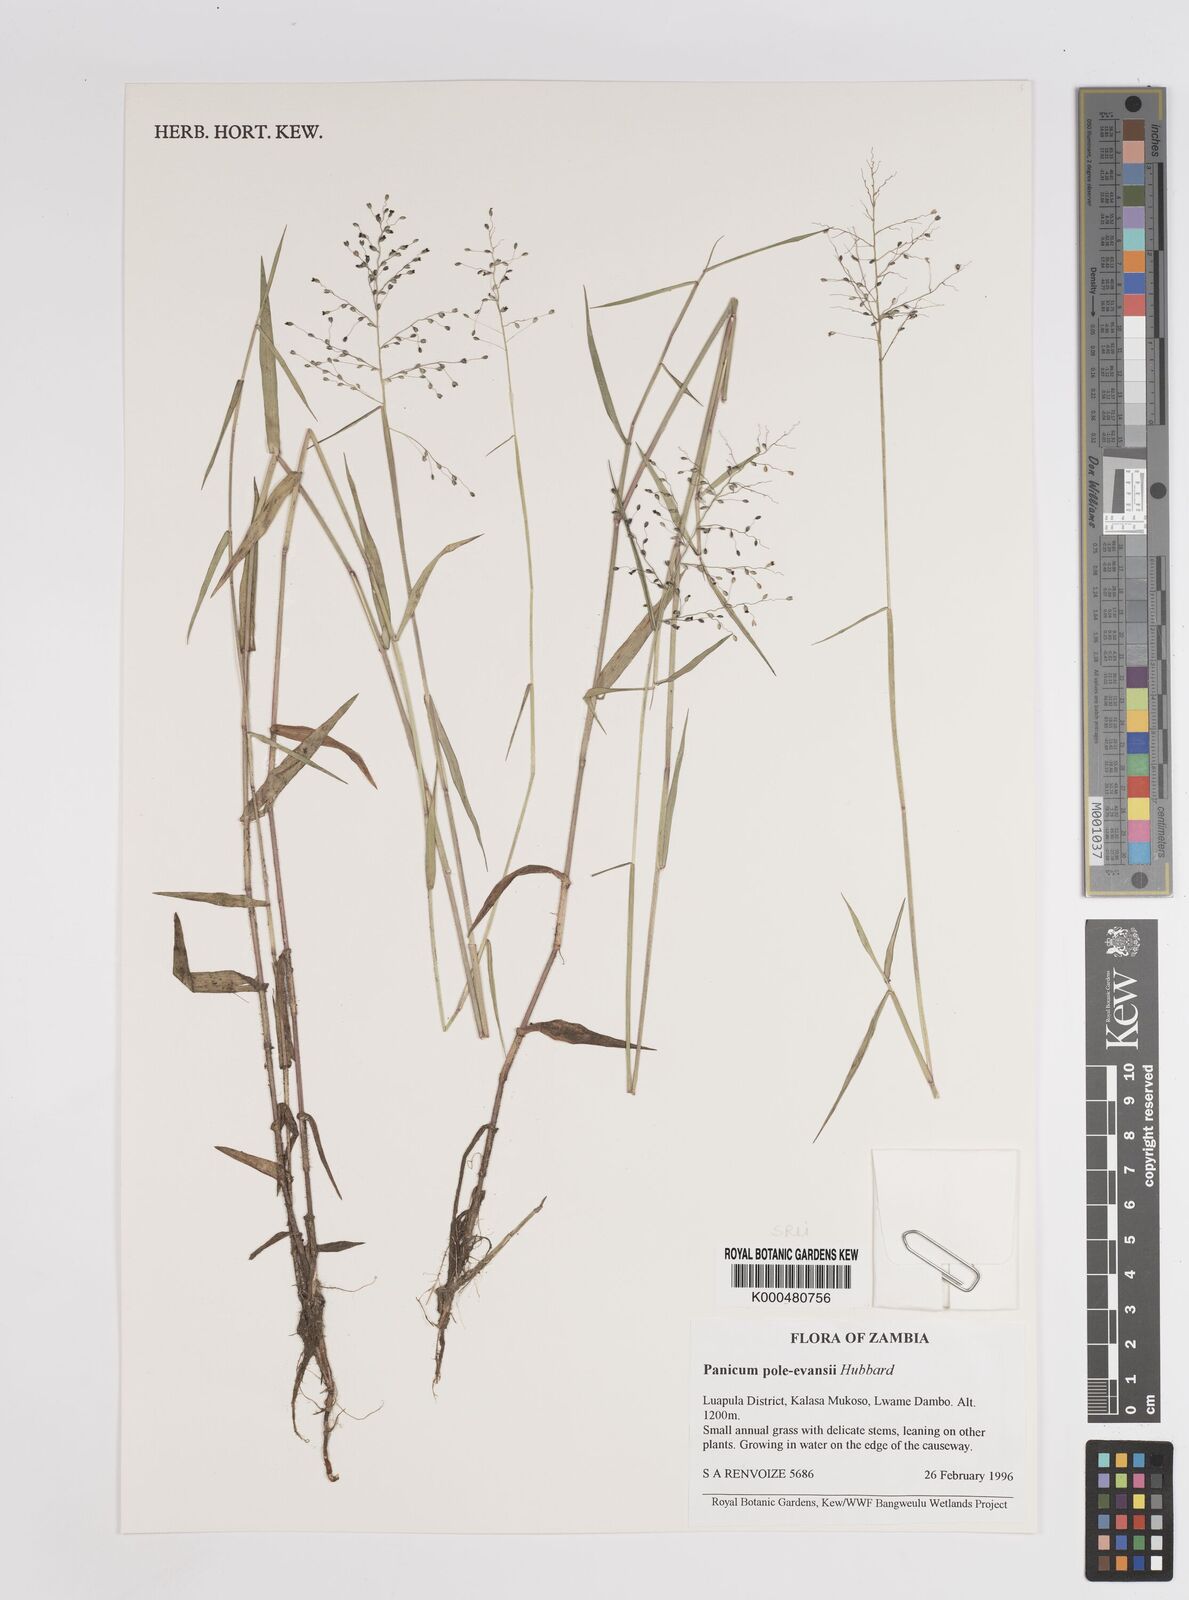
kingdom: Plantae
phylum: Tracheophyta
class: Liliopsida
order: Poales
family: Poaceae
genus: Adenochloa
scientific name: Adenochloa pole-evansii
